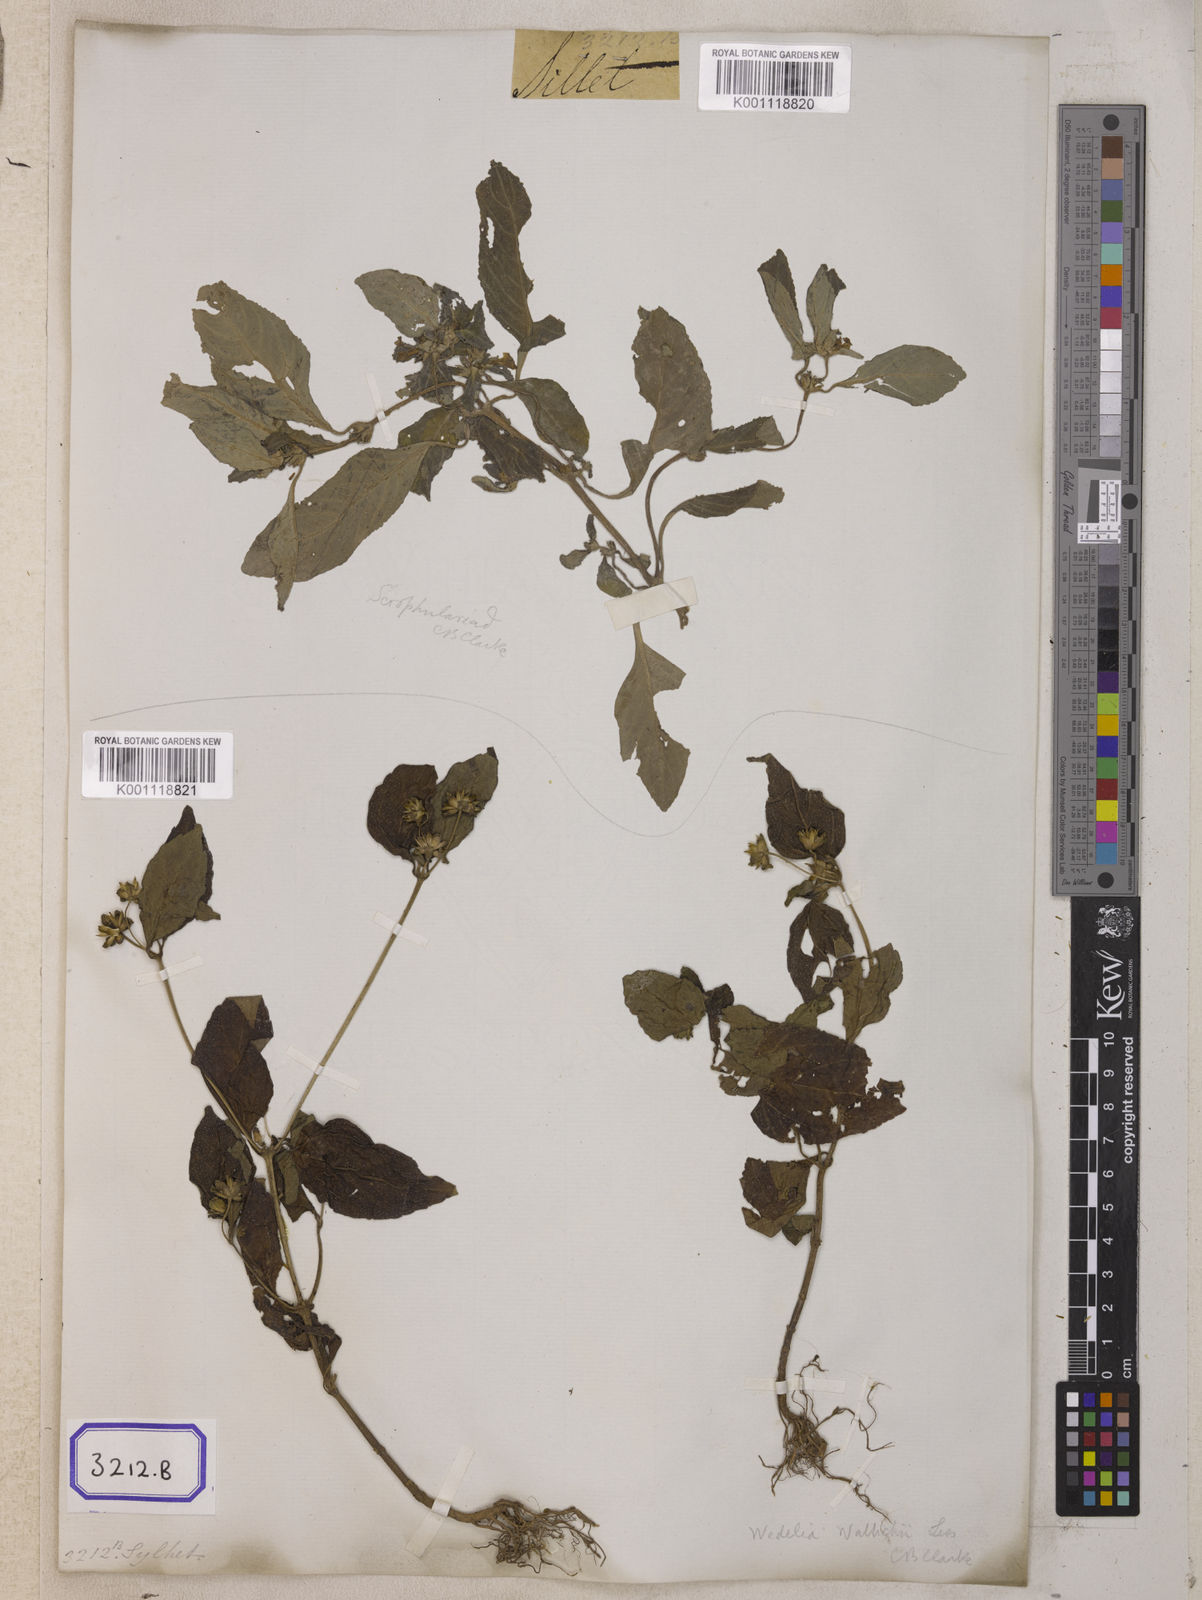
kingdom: Plantae
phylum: Tracheophyta
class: Magnoliopsida
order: Asterales
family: Asteraceae
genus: Wollastonia
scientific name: Wollastonia biflora
